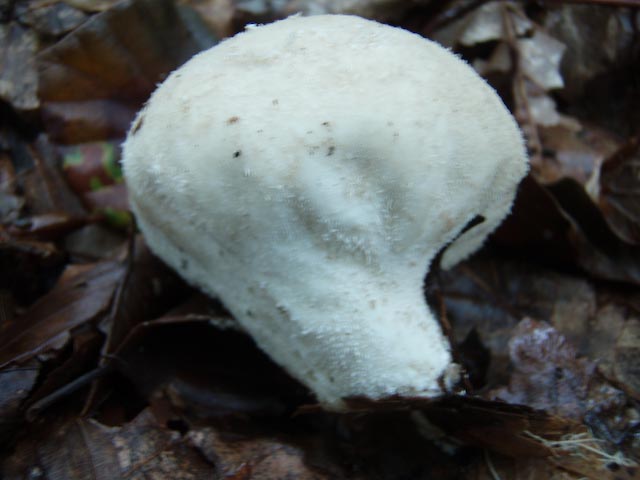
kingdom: Fungi
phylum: Basidiomycota
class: Agaricomycetes
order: Agaricales
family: Lycoperdaceae
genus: Lycoperdon
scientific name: Lycoperdon molle
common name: skov-støvbold
